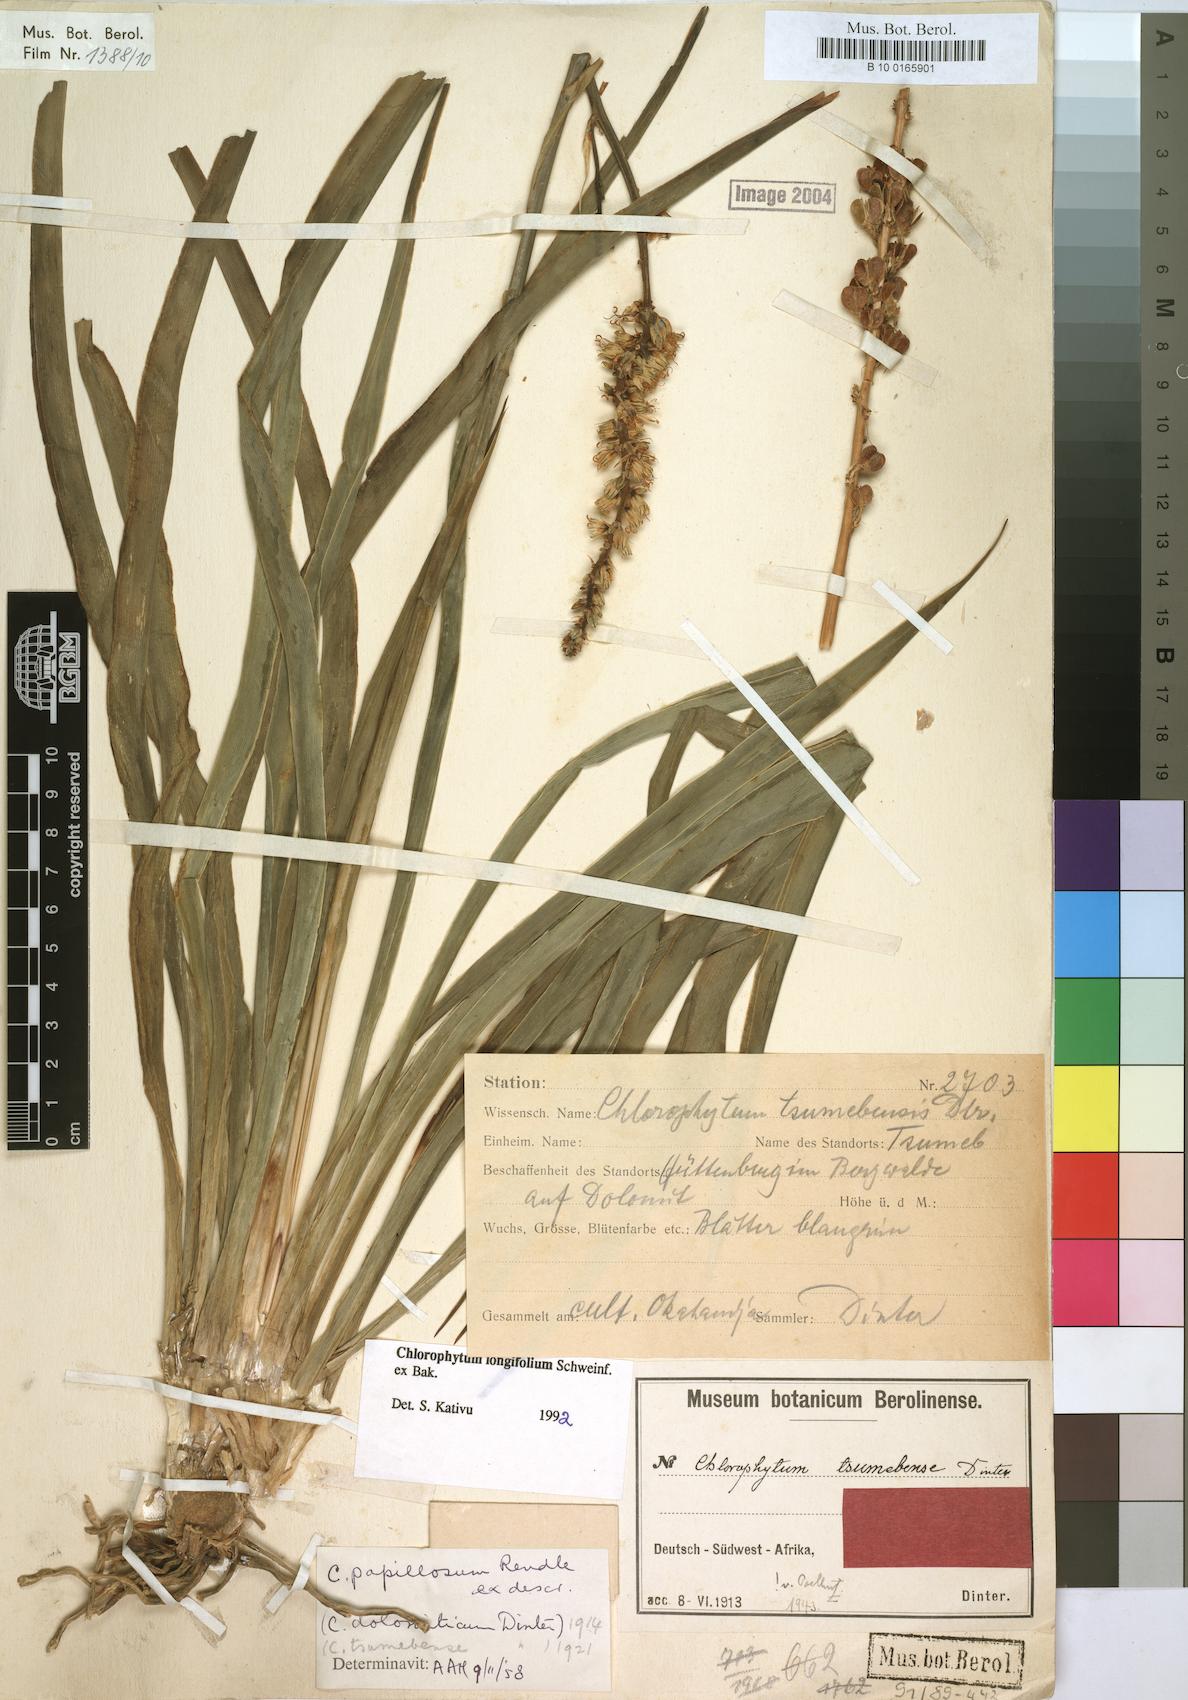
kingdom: Plantae
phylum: Tracheophyta
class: Liliopsida
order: Asparagales
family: Asparagaceae
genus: Chlorophytum
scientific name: Chlorophytum longifolium
